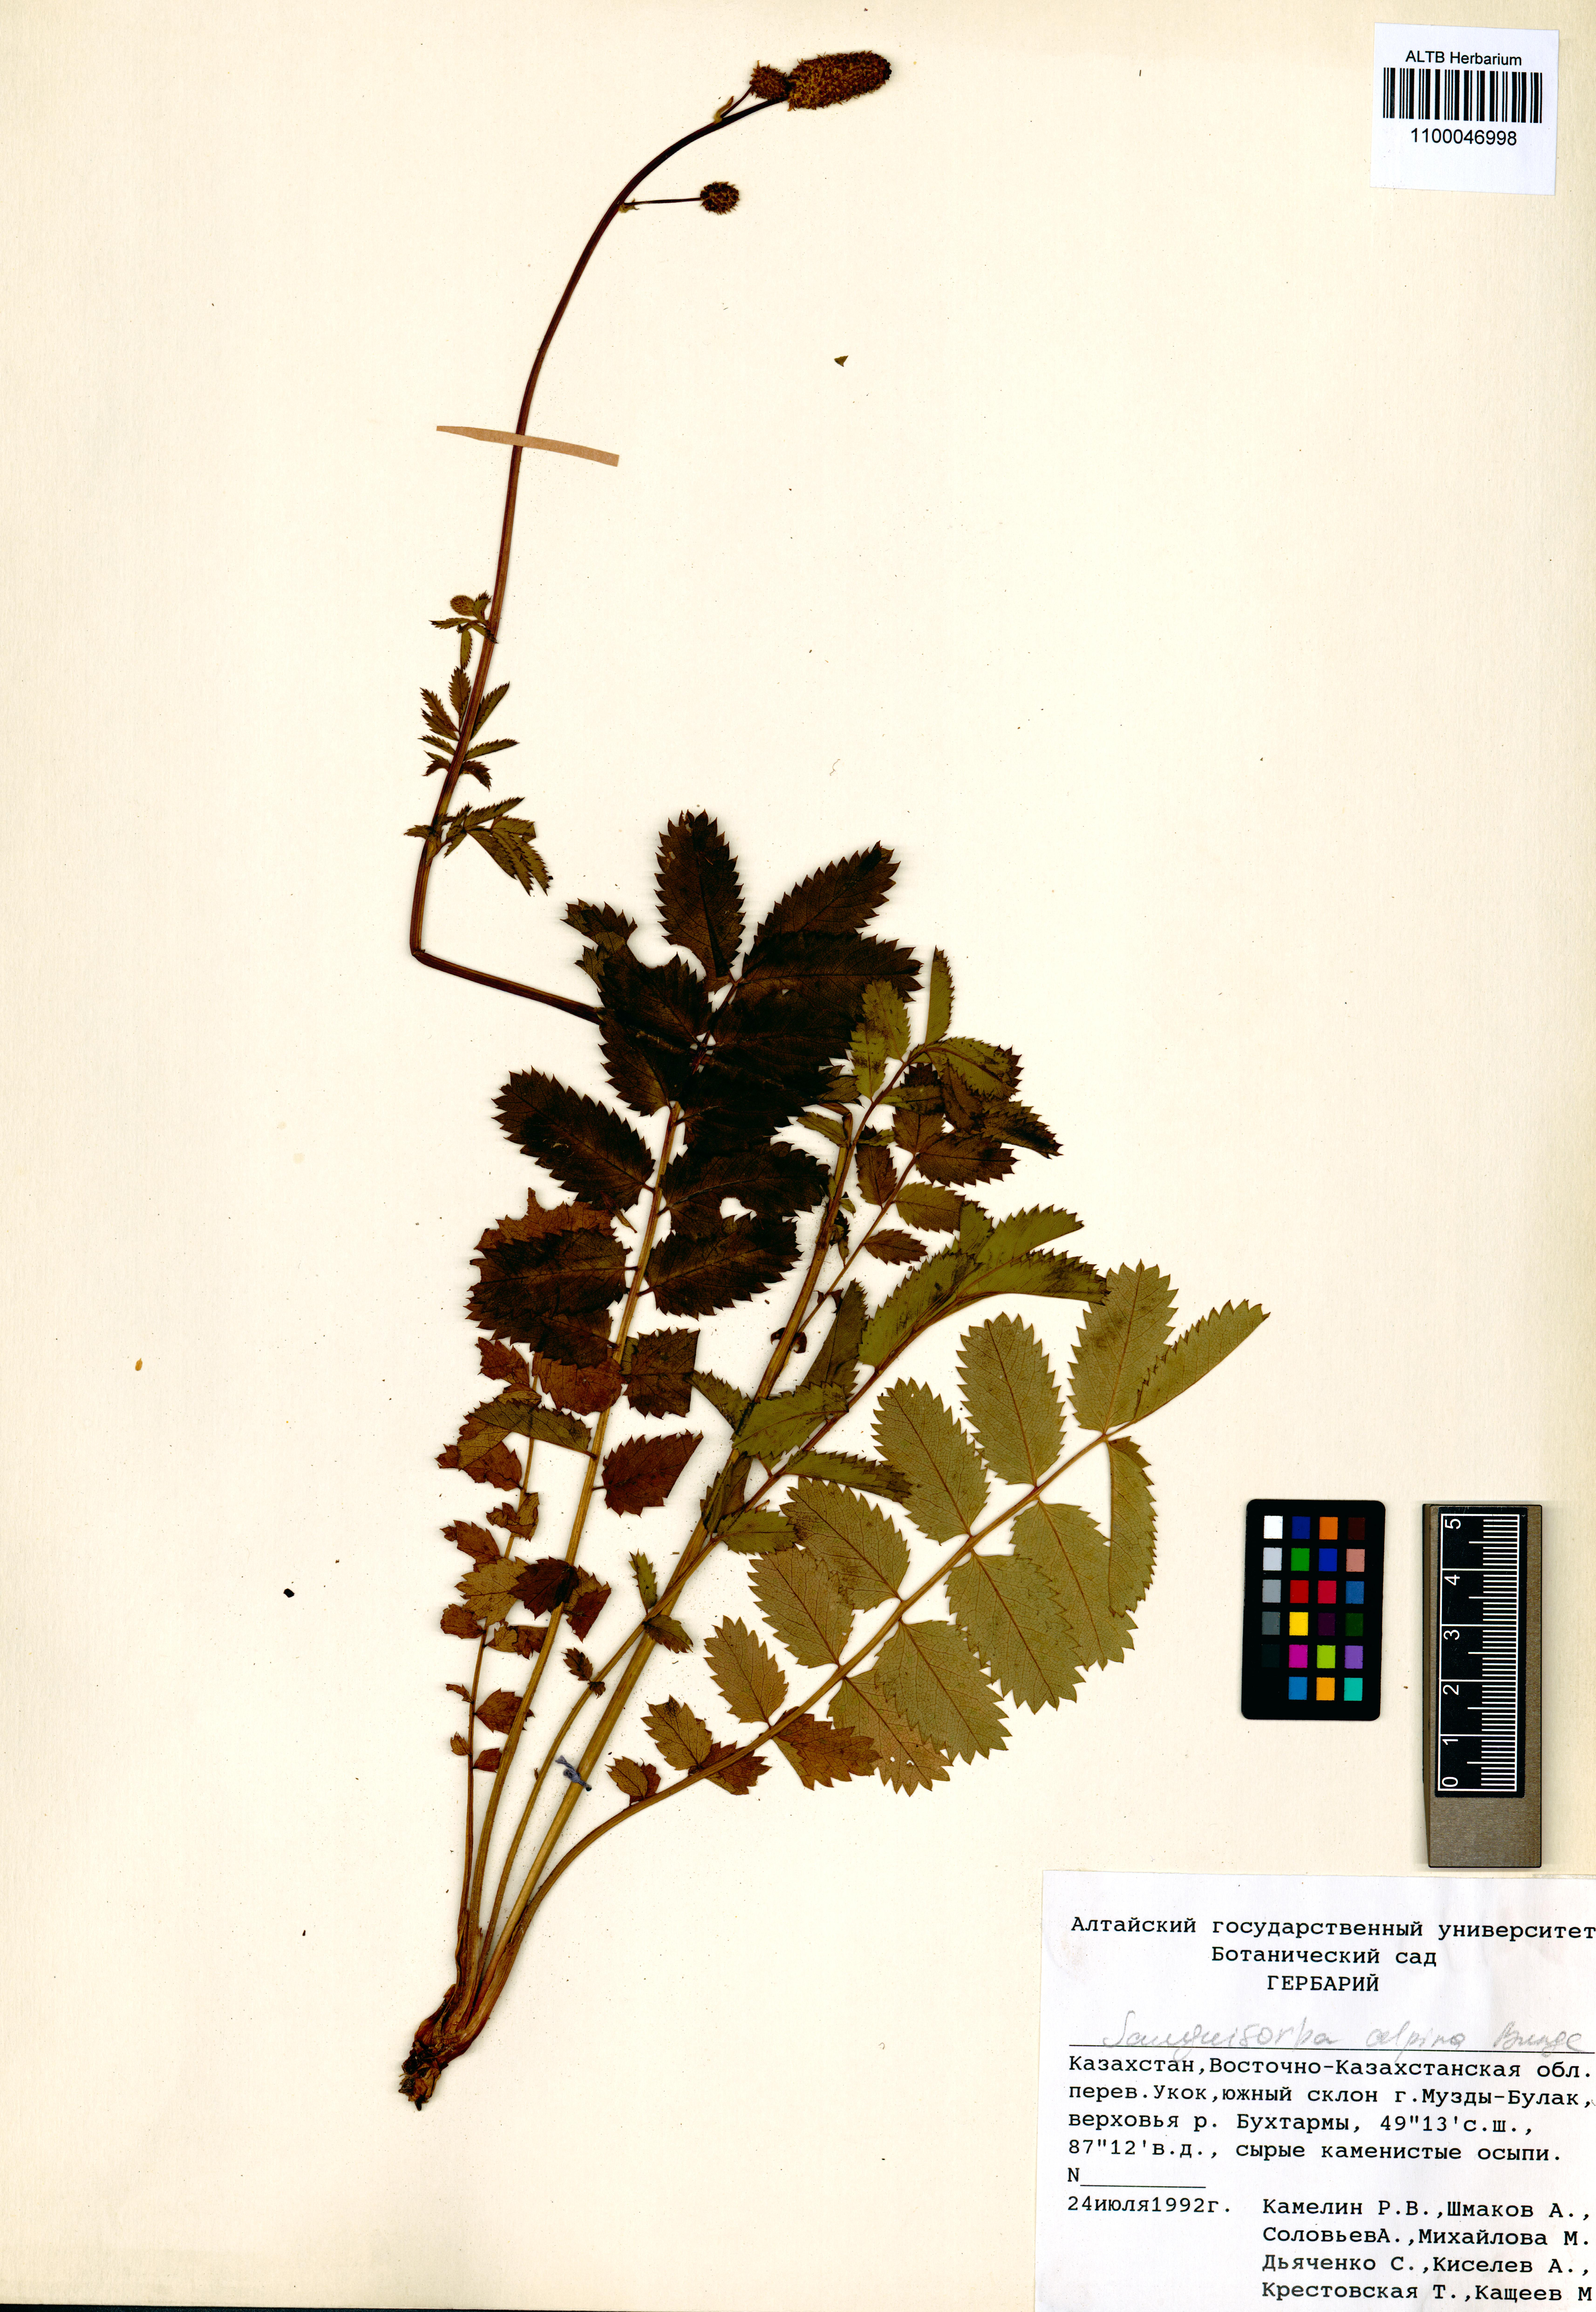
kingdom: Plantae
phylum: Tracheophyta
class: Magnoliopsida
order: Rosales
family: Rosaceae
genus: Sanguisorba
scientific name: Sanguisorba alpina
